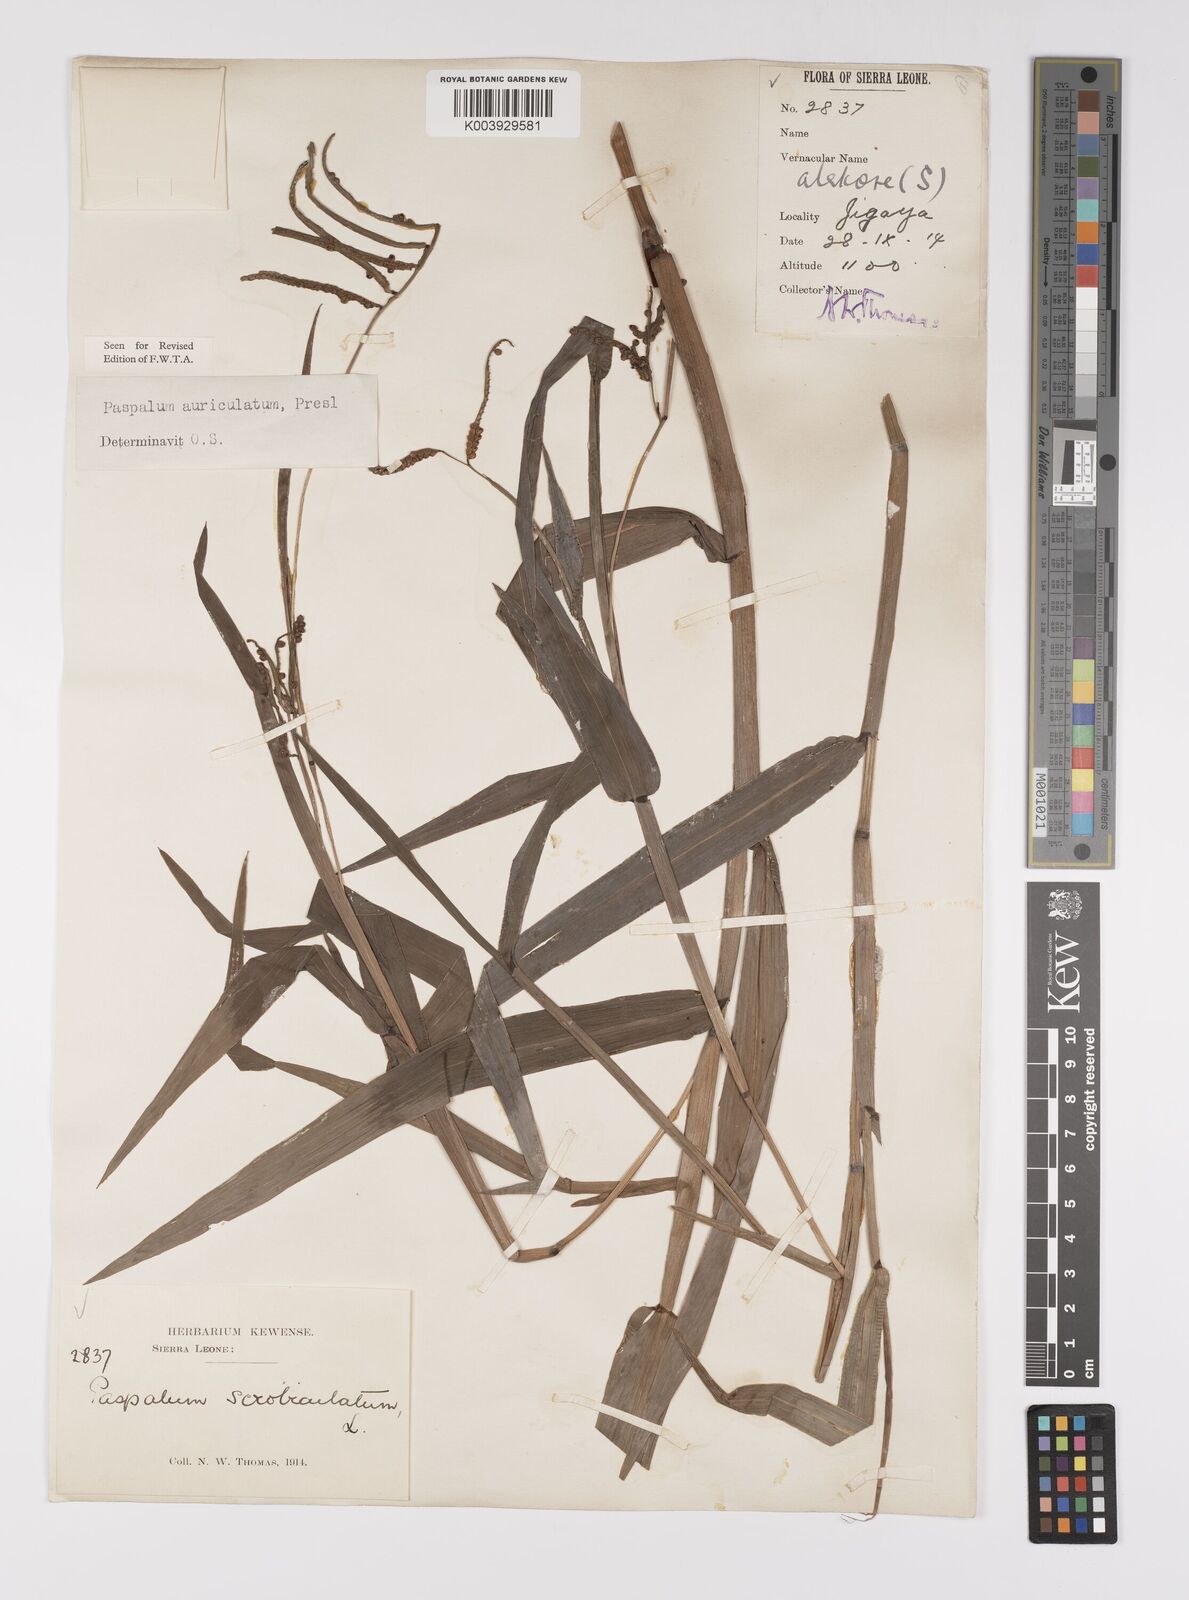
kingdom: Plantae
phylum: Tracheophyta
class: Liliopsida
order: Poales
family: Poaceae
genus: Paspalum
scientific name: Paspalum lamprocaryon
